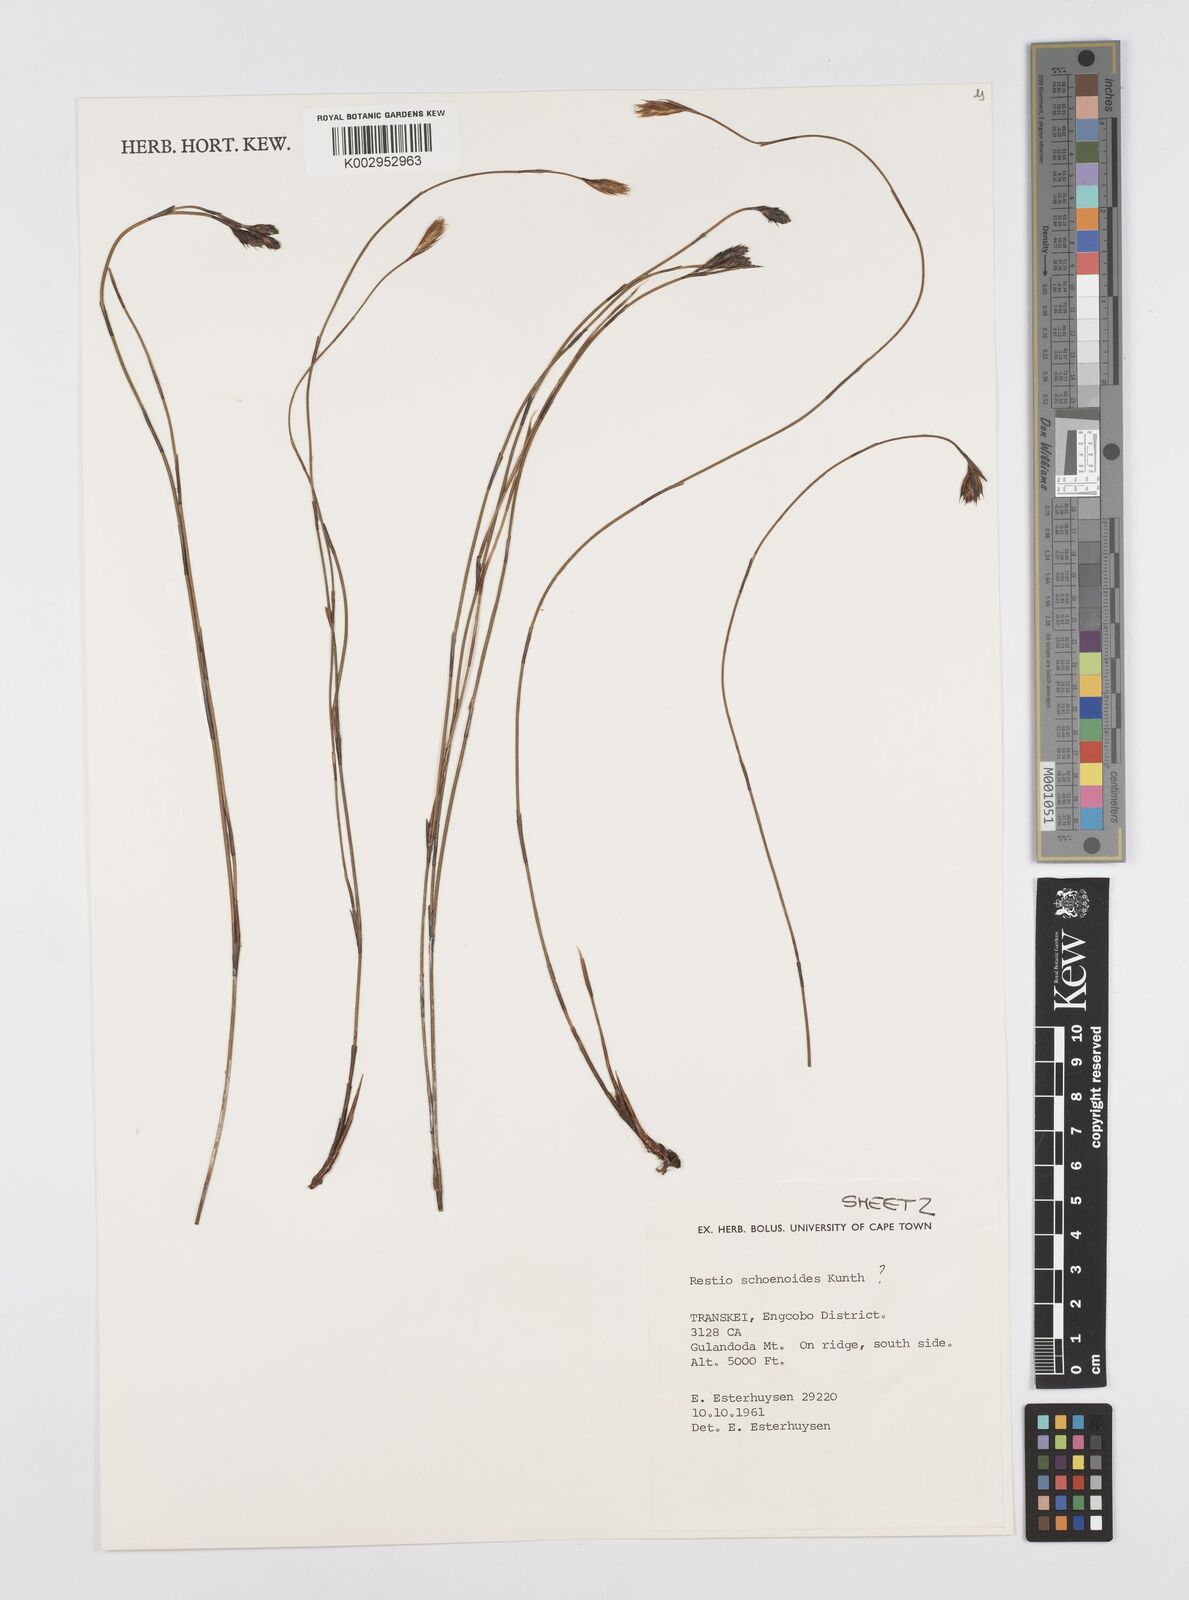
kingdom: Plantae
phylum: Tracheophyta
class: Liliopsida
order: Poales
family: Restionaceae
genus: Restio
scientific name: Restio schoenoides
